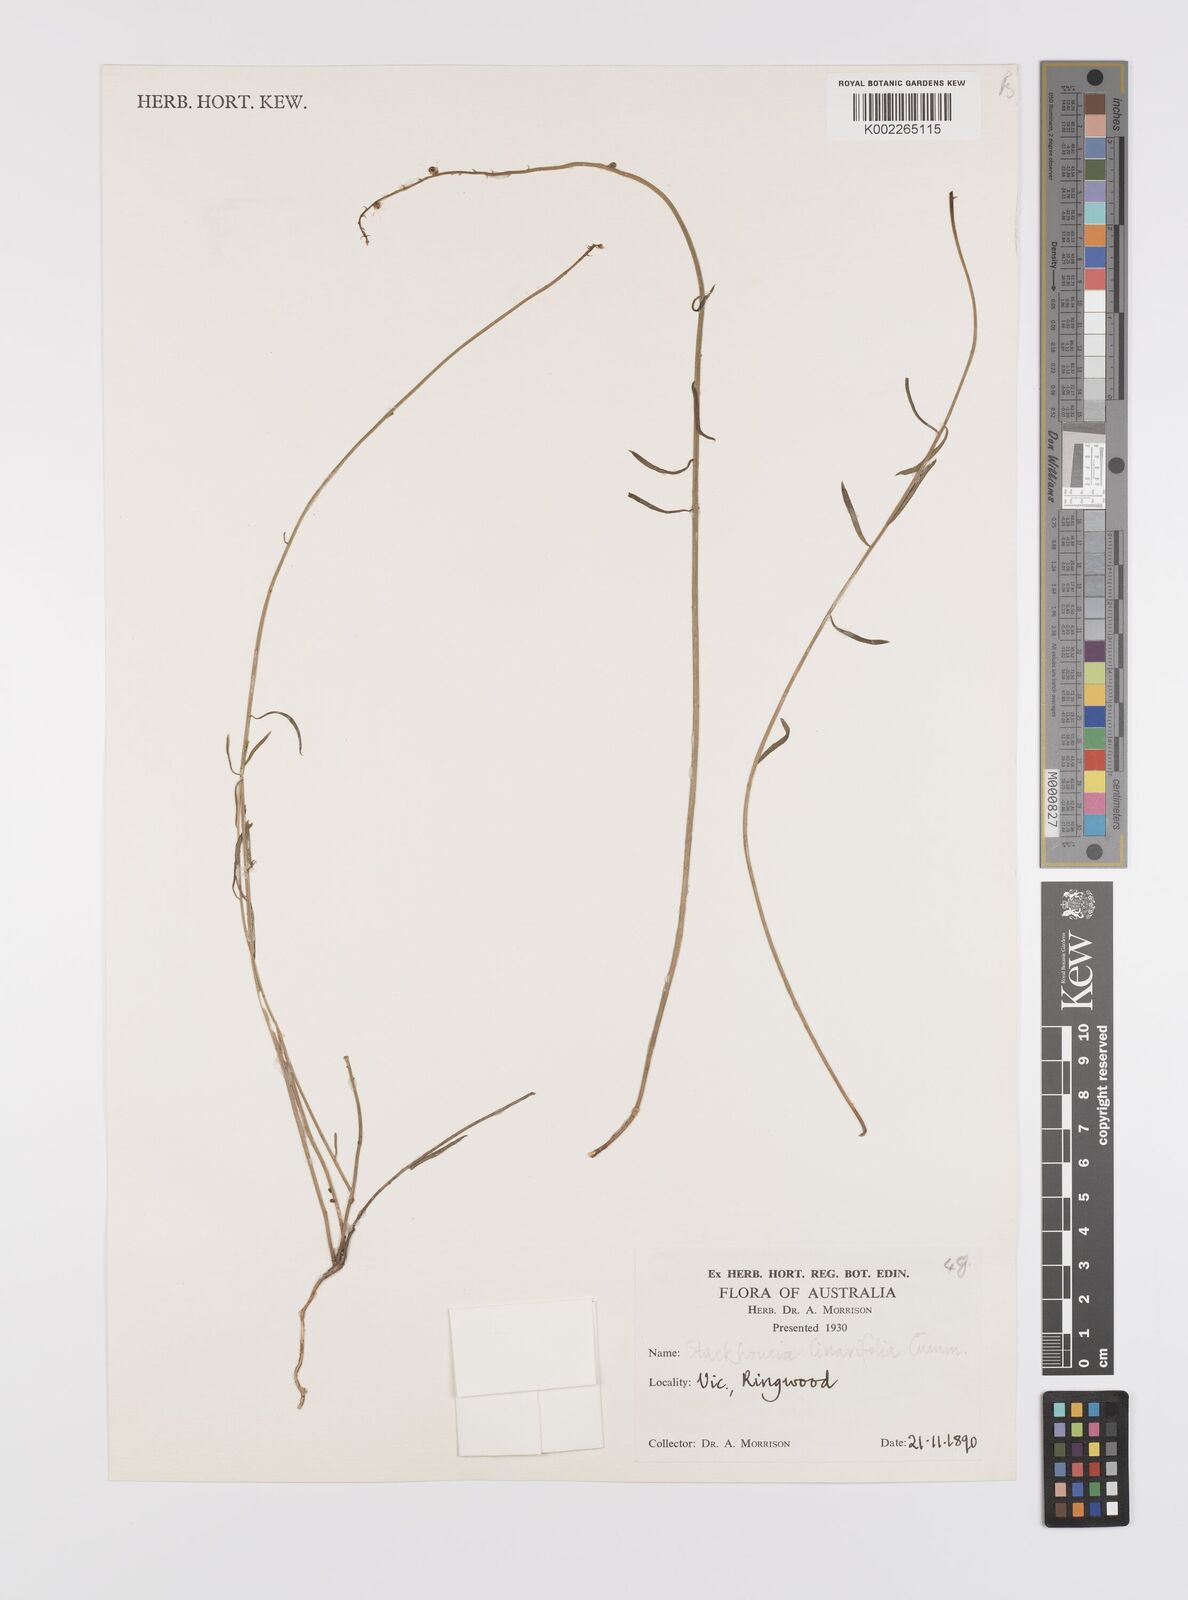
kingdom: Plantae
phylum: Tracheophyta
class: Magnoliopsida
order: Celastrales
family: Celastraceae
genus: Stackhousia
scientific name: Stackhousia monogyna
